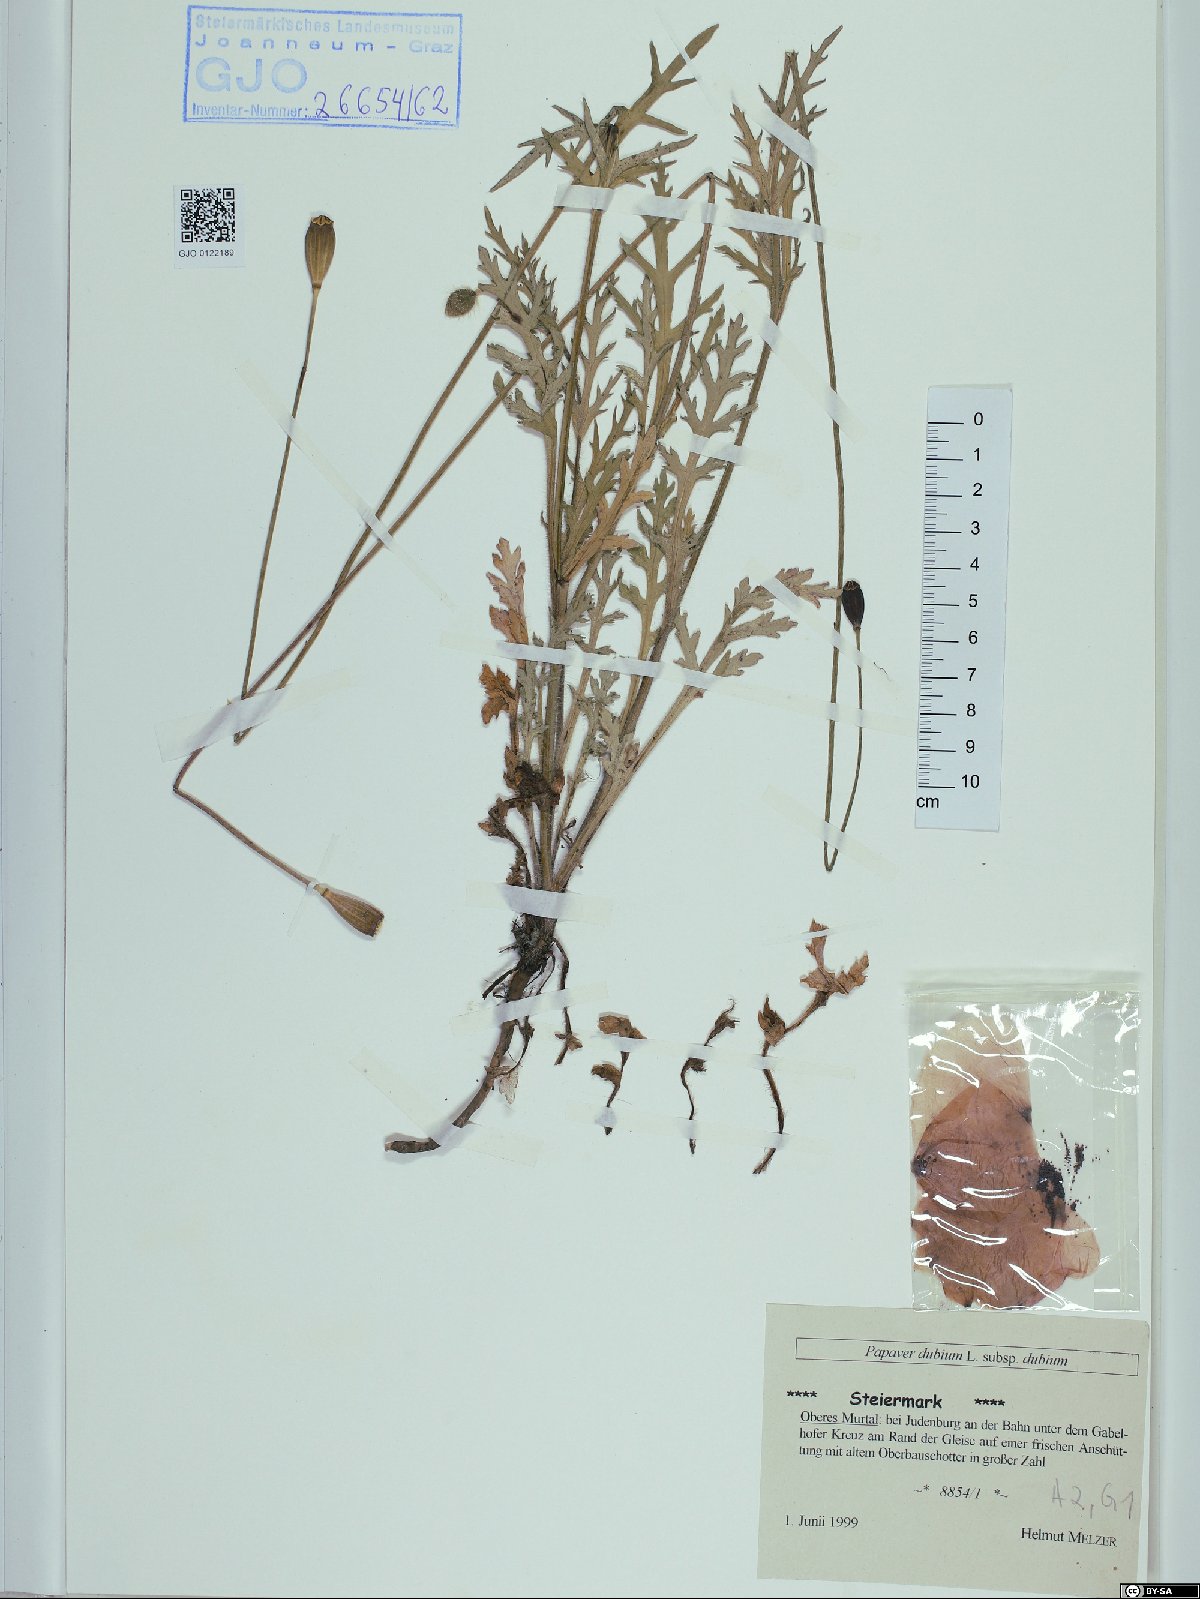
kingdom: Plantae
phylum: Tracheophyta
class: Magnoliopsida
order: Ranunculales
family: Papaveraceae
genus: Papaver
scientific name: Papaver dubium
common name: Long-headed poppy
